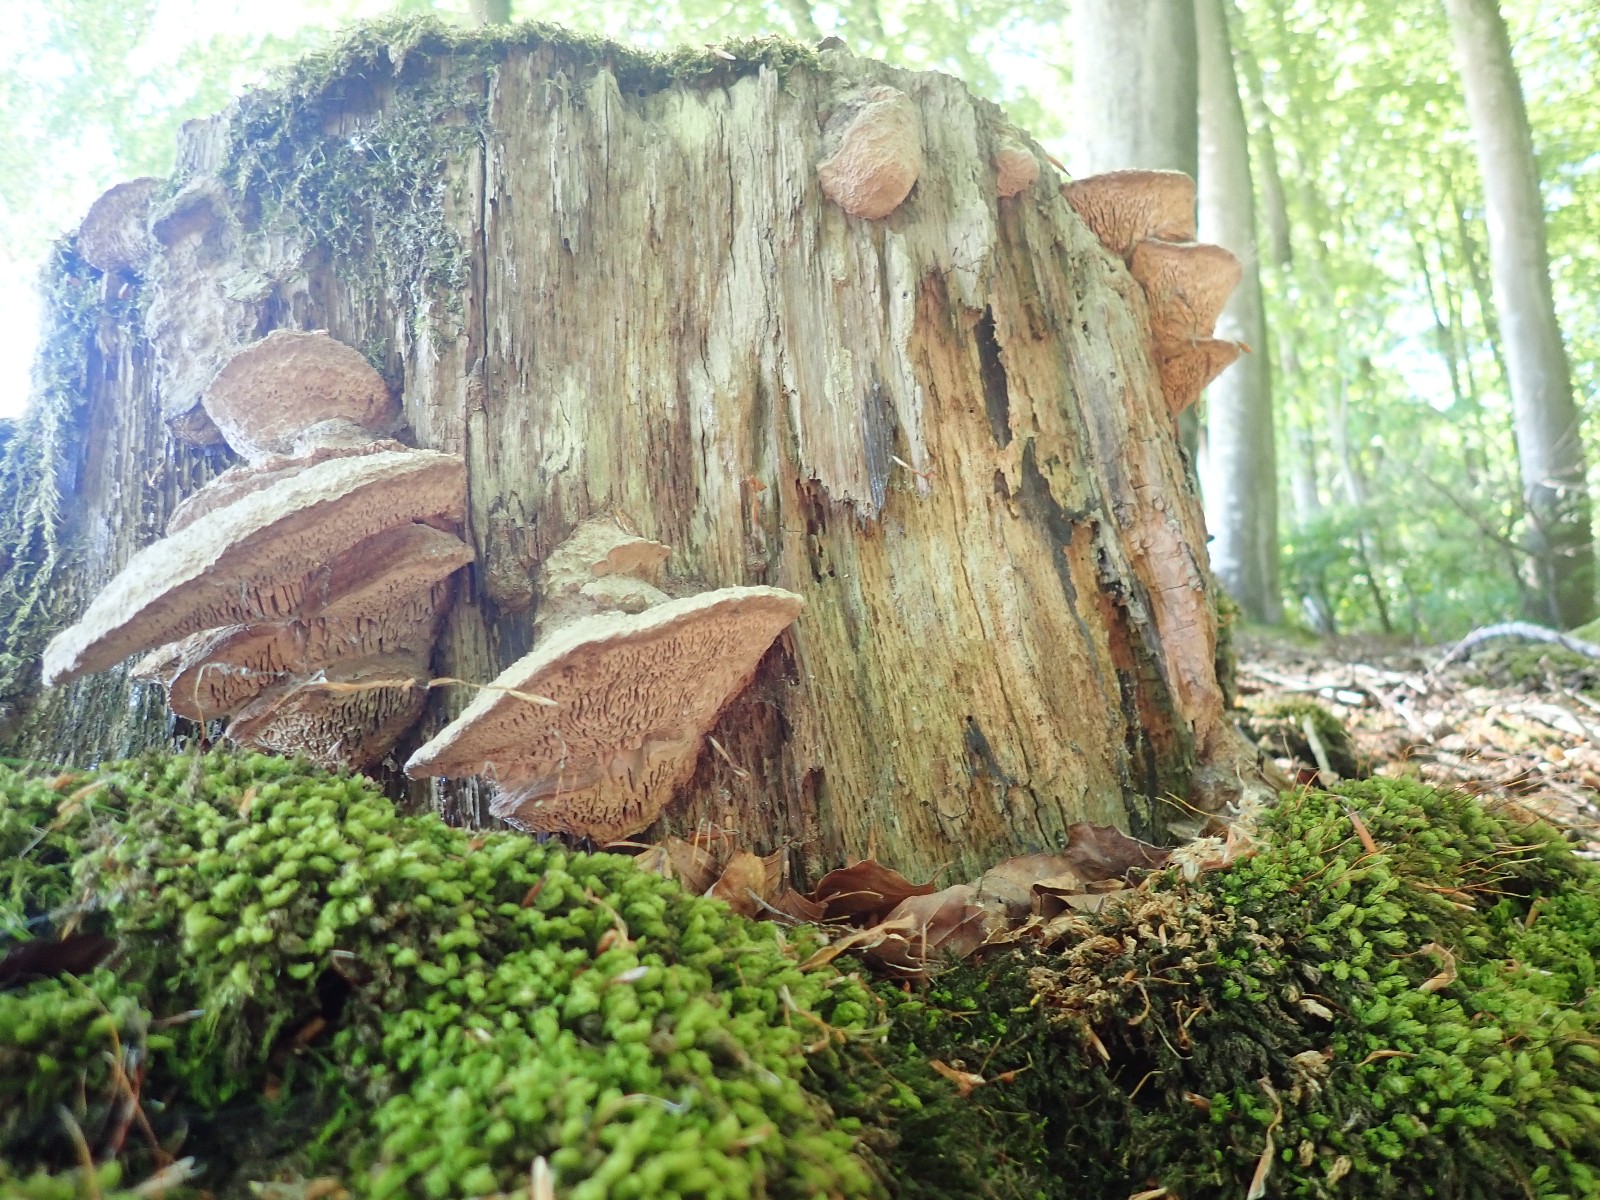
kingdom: Fungi
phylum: Basidiomycota
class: Agaricomycetes
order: Polyporales
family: Fomitopsidaceae
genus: Daedalea
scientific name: Daedalea quercina
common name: ege-labyrintsvamp
